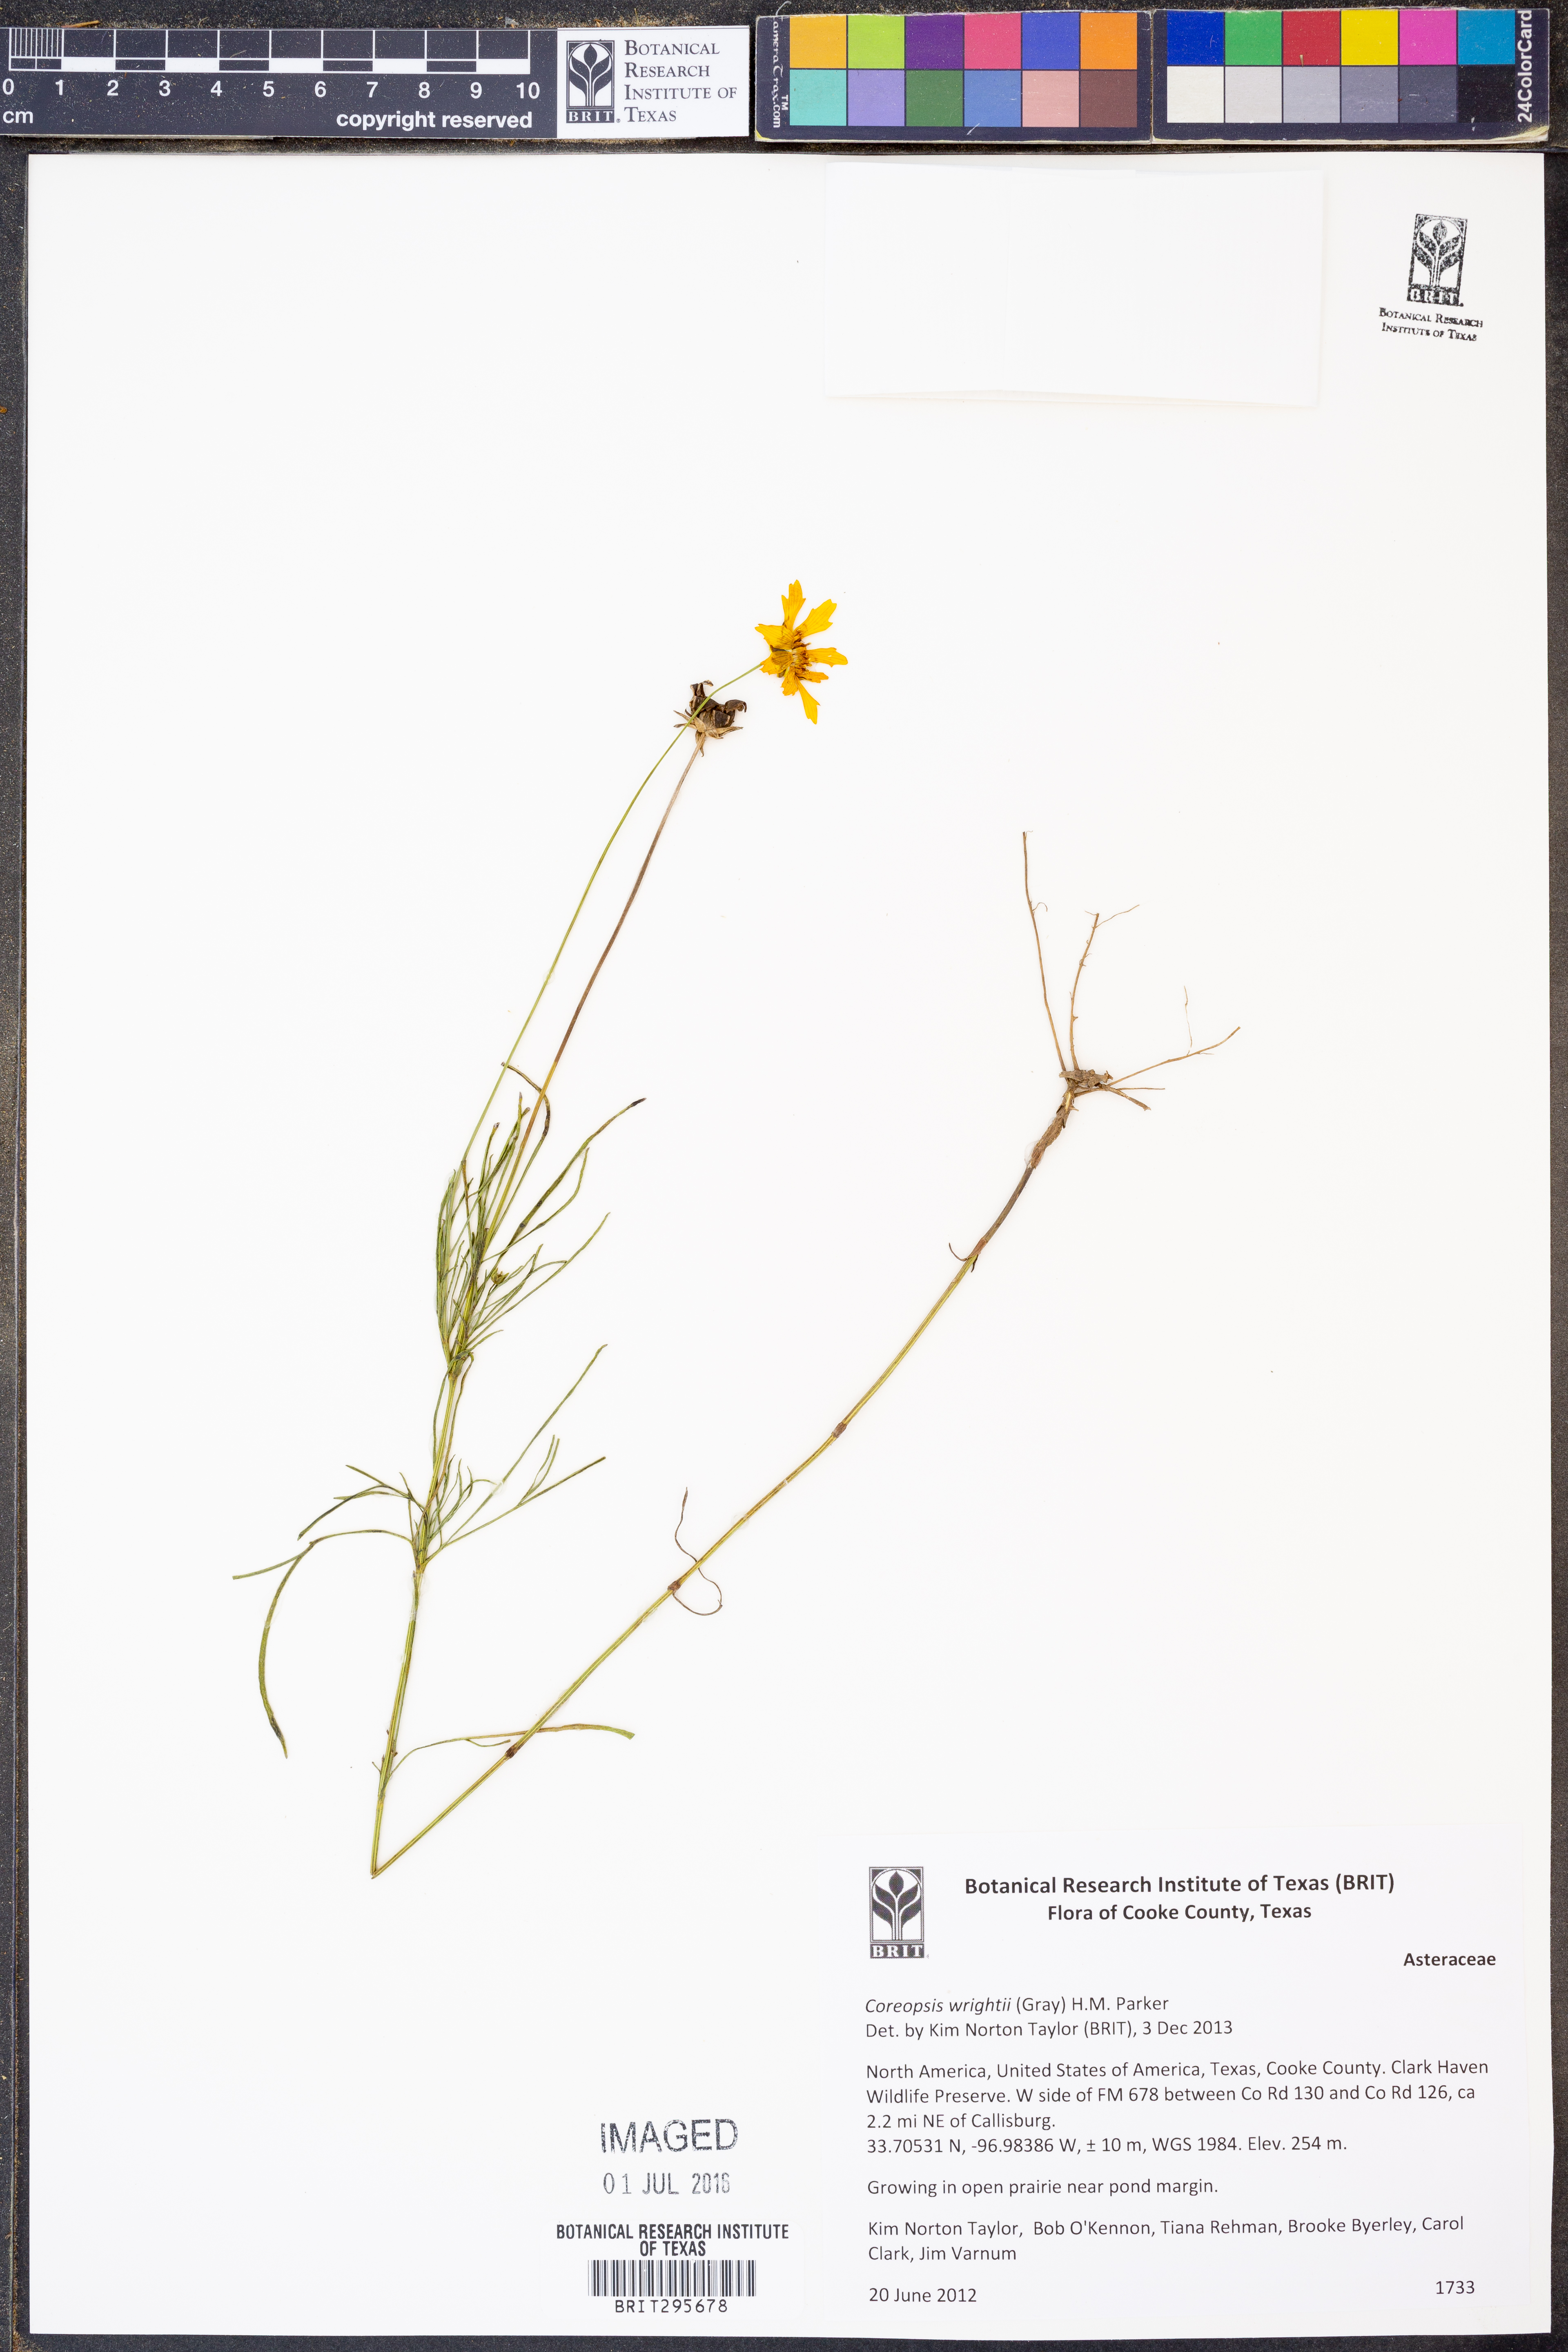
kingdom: Plantae
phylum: Tracheophyta
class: Magnoliopsida
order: Asterales
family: Asteraceae
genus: Coreopsis
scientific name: Coreopsis basalis
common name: Golden-mane coreopsis
